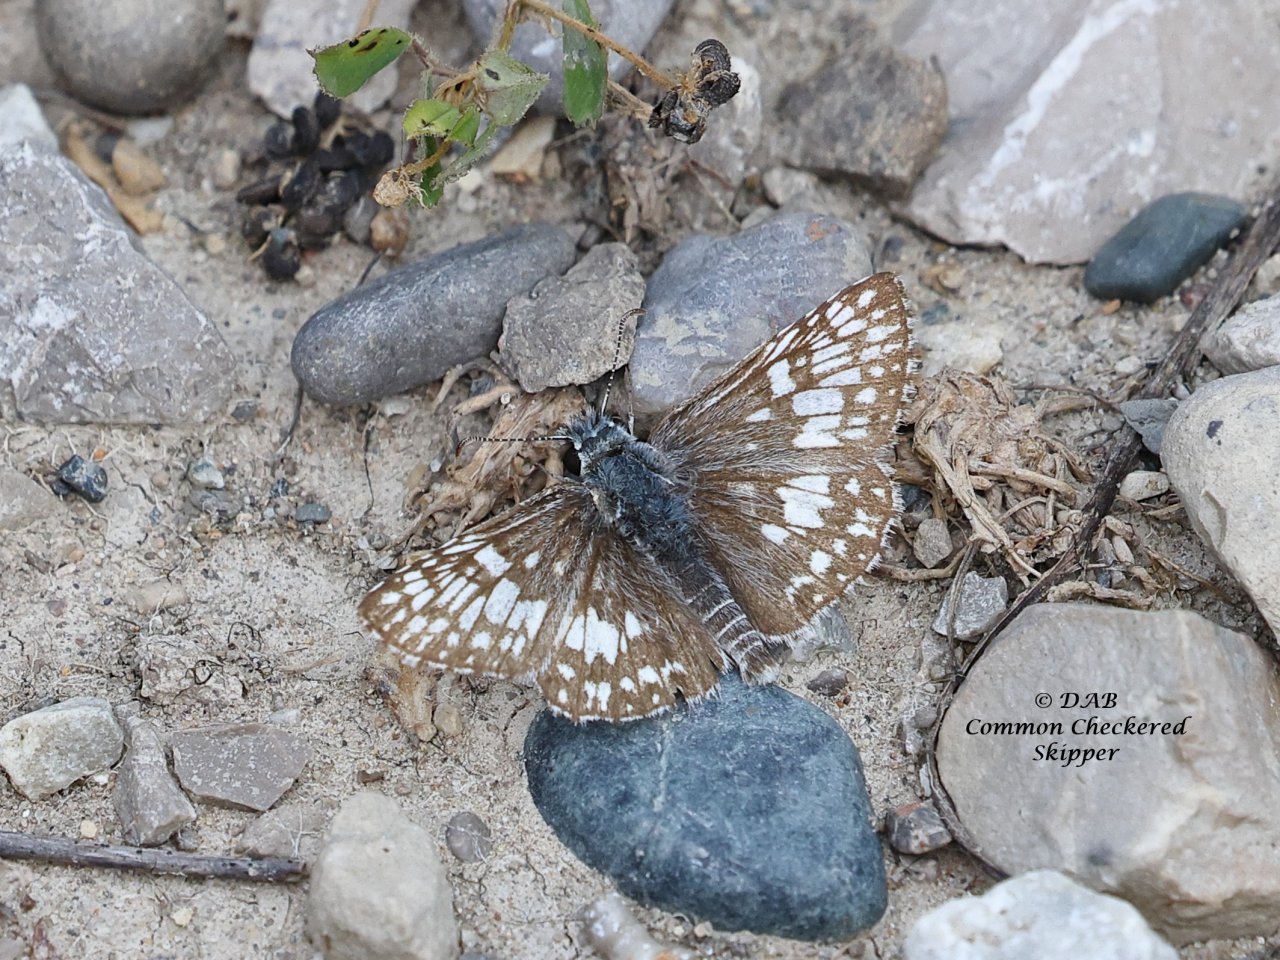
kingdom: Animalia
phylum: Arthropoda
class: Insecta
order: Lepidoptera
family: Hesperiidae
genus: Pyrgus
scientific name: Pyrgus communis
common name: Common Checkered-Skipper
